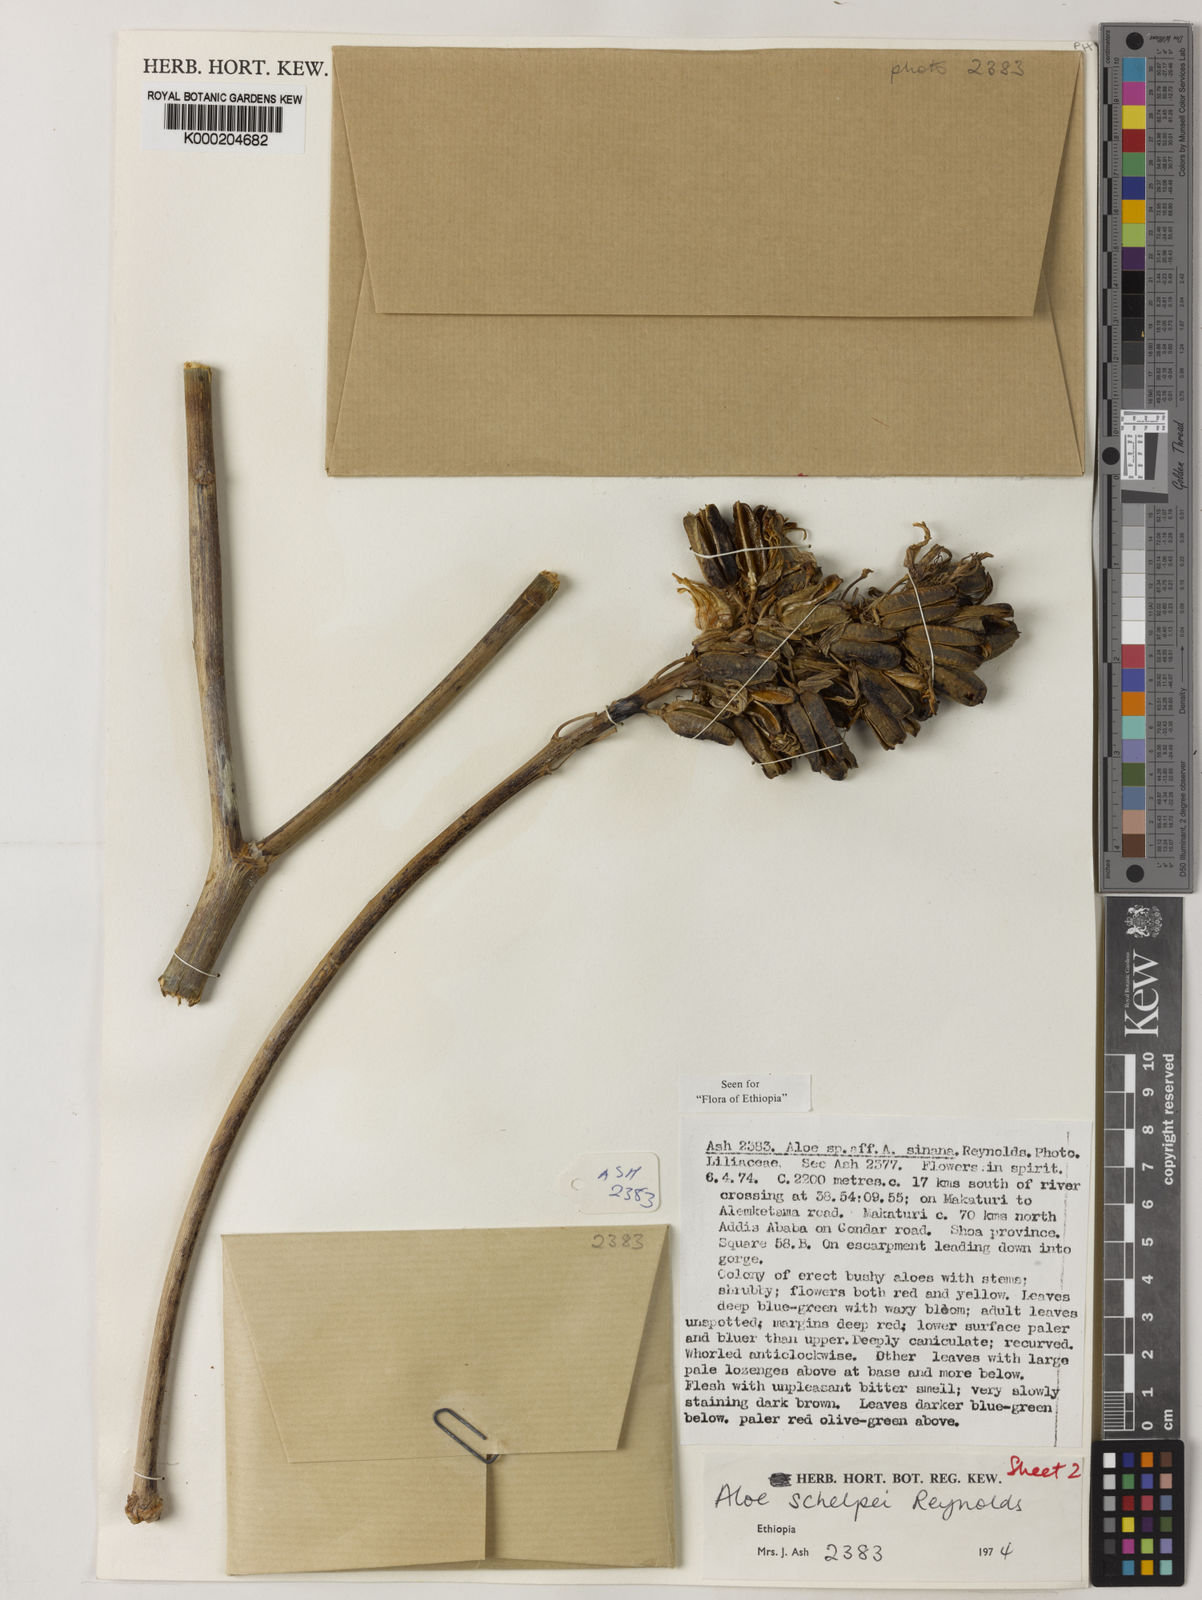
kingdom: Plantae
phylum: Tracheophyta
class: Liliopsida
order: Asparagales
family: Asphodelaceae
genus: Aloe
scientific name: Aloe schelpei
